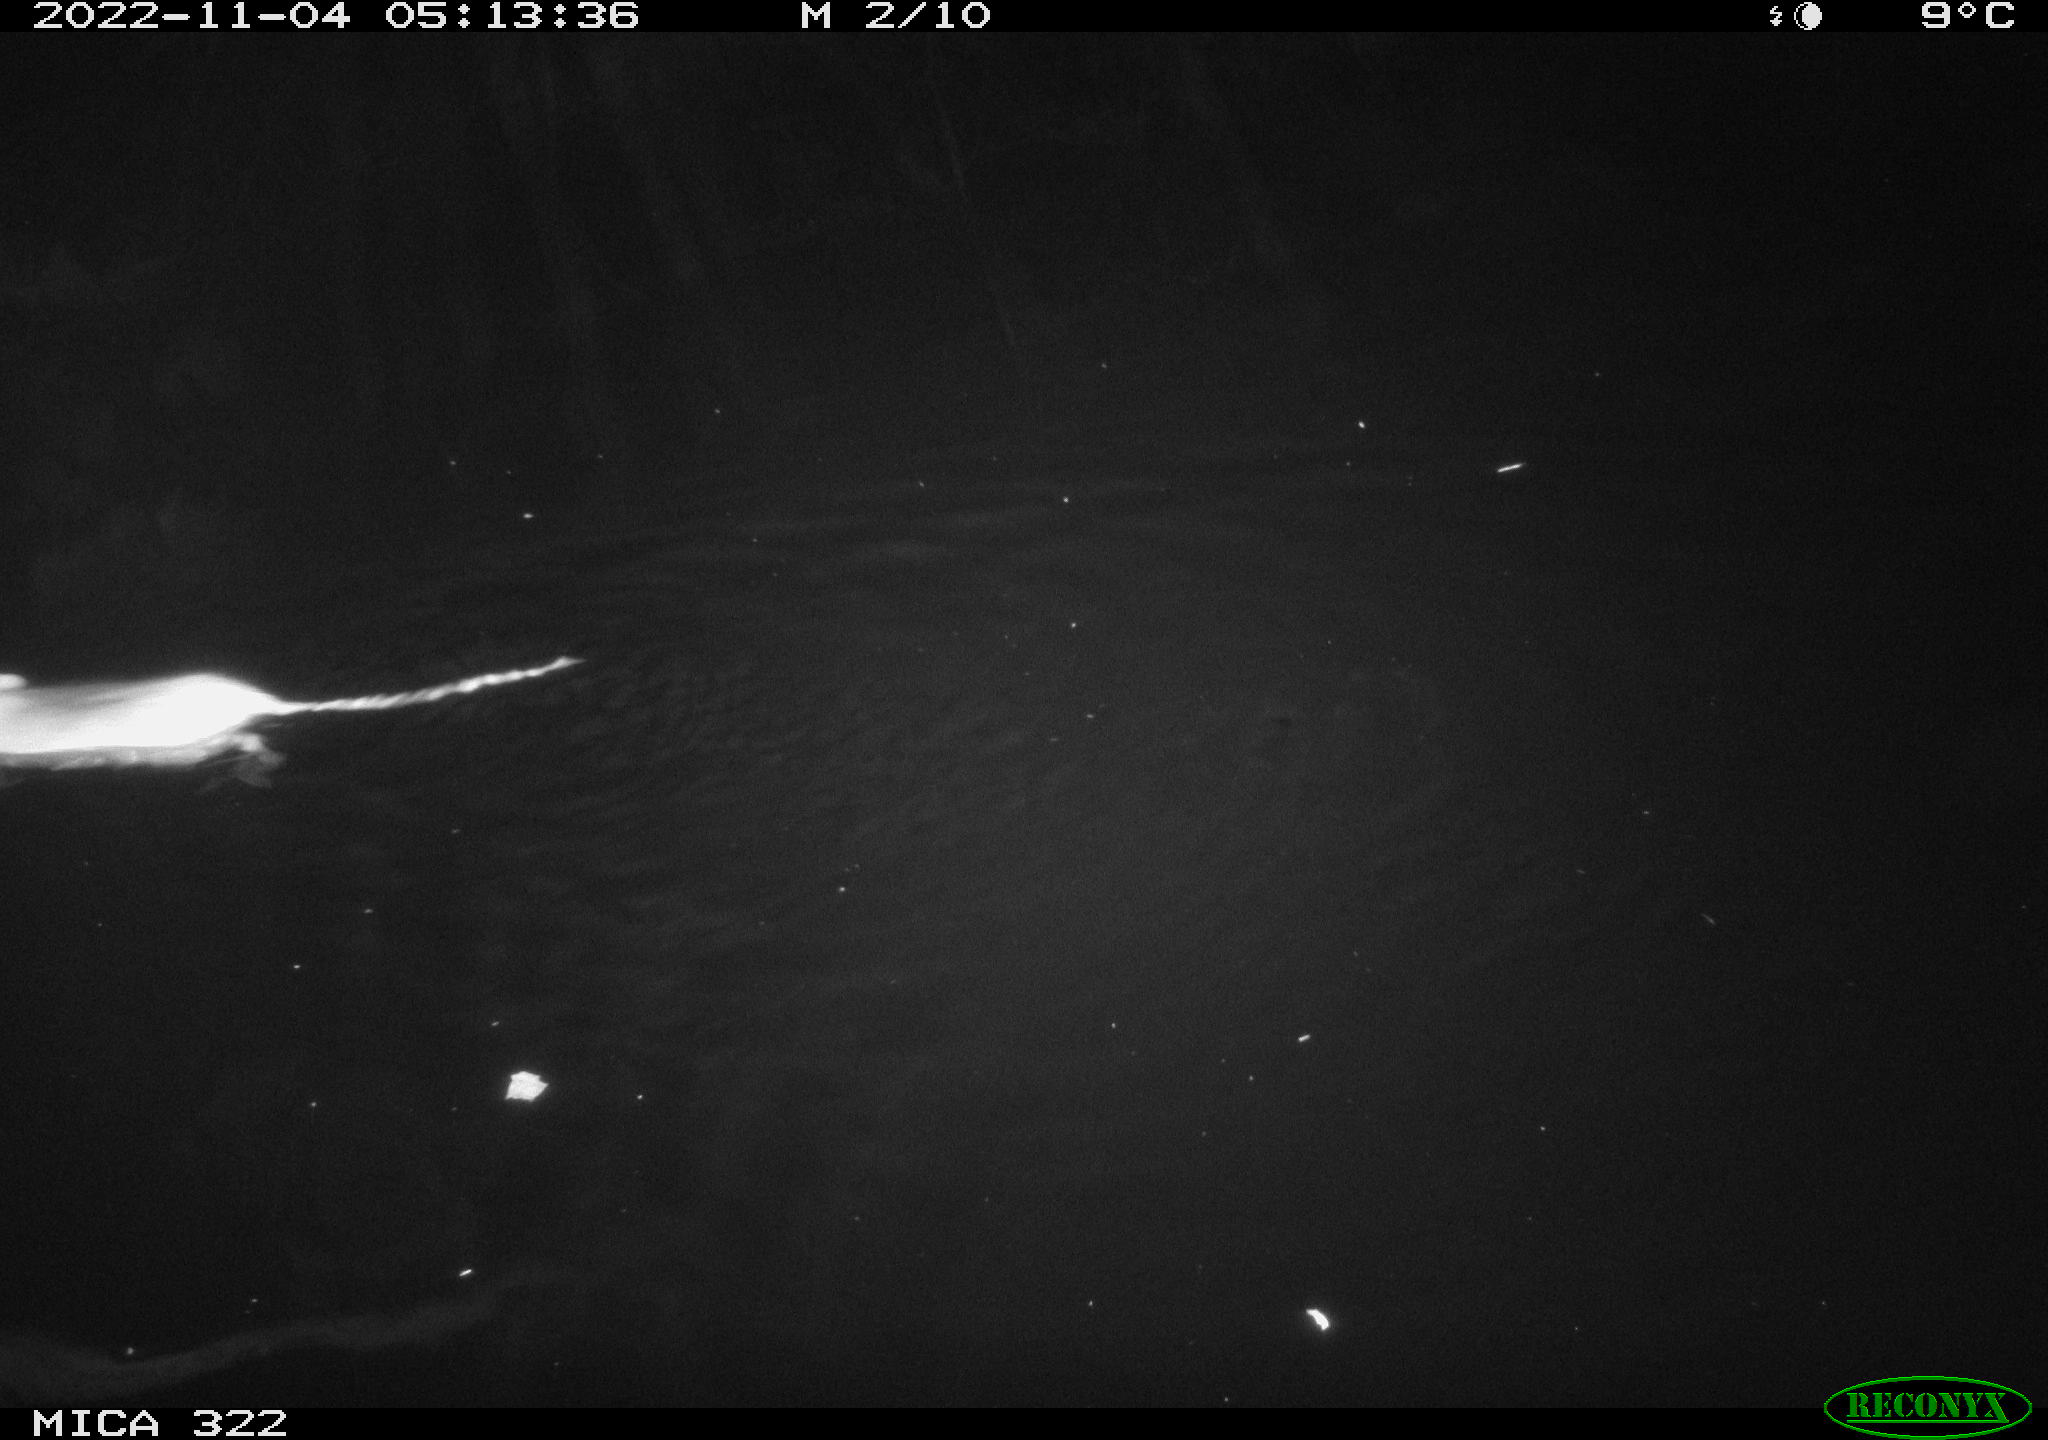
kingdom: Animalia
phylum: Chordata
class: Mammalia
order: Rodentia
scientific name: Rodentia
